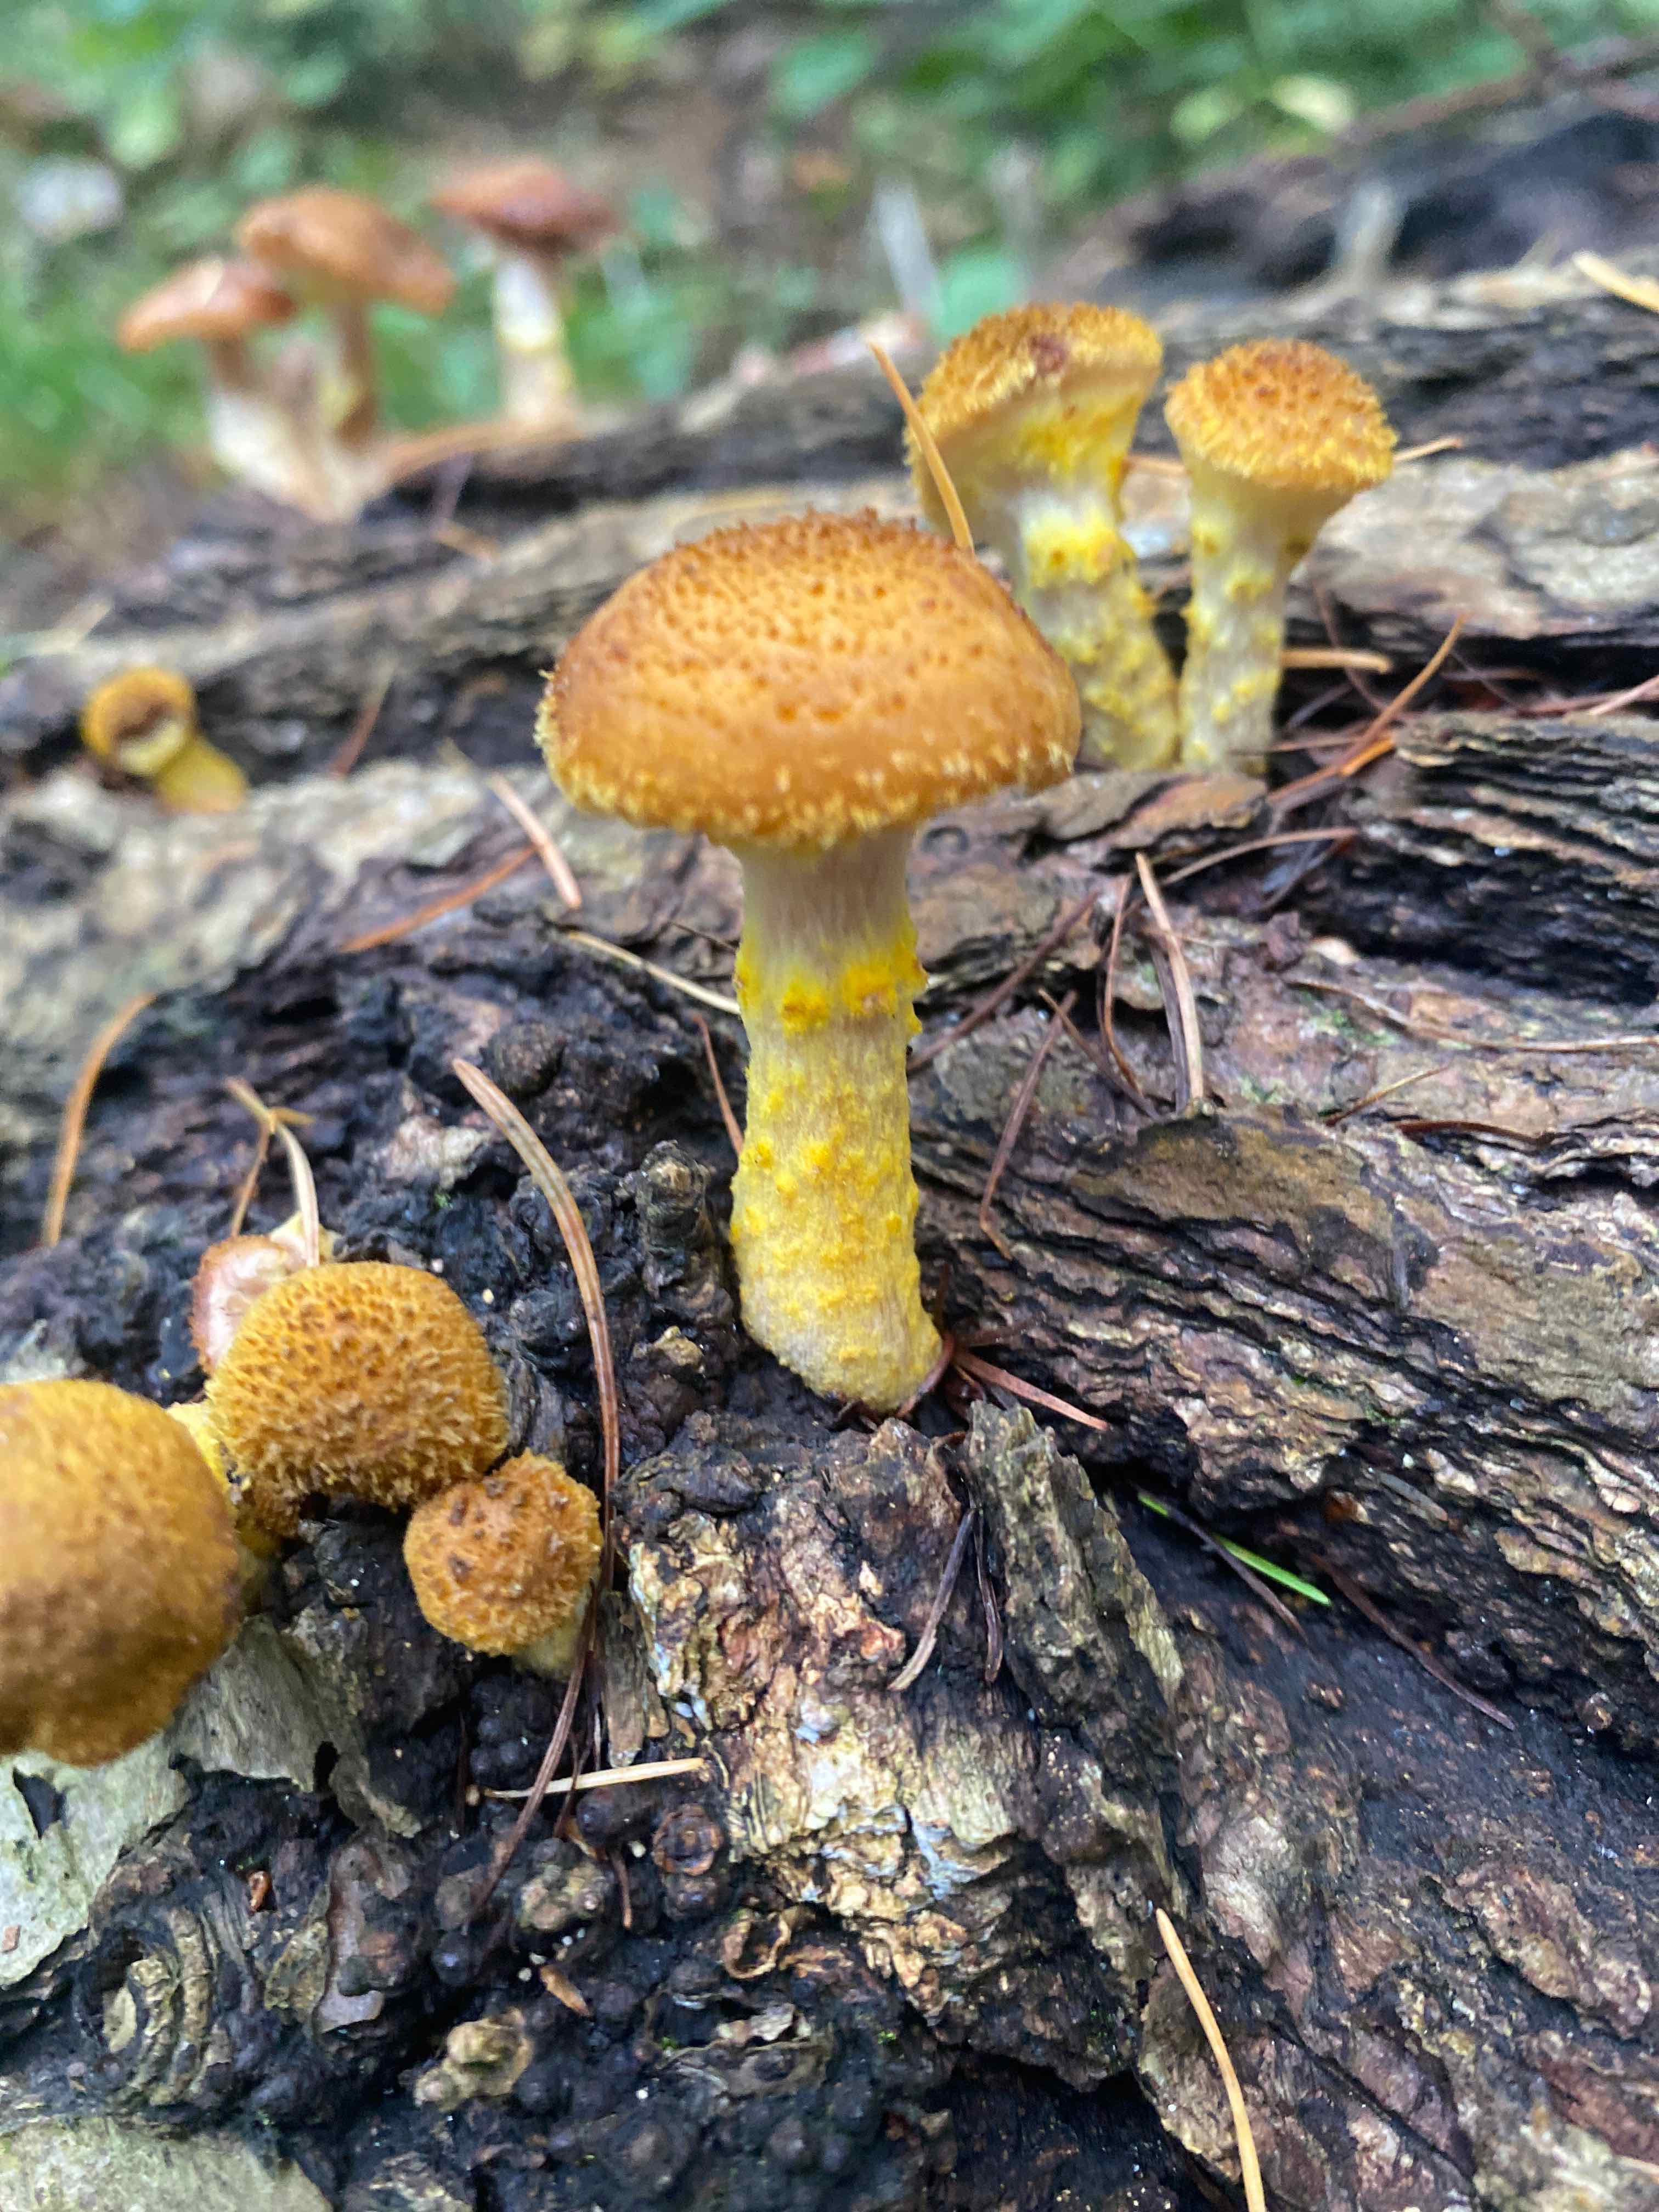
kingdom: Fungi
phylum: Basidiomycota
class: Agaricomycetes
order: Agaricales
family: Physalacriaceae
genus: Armillaria
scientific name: Armillaria lutea
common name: køllestokket honningsvamp
